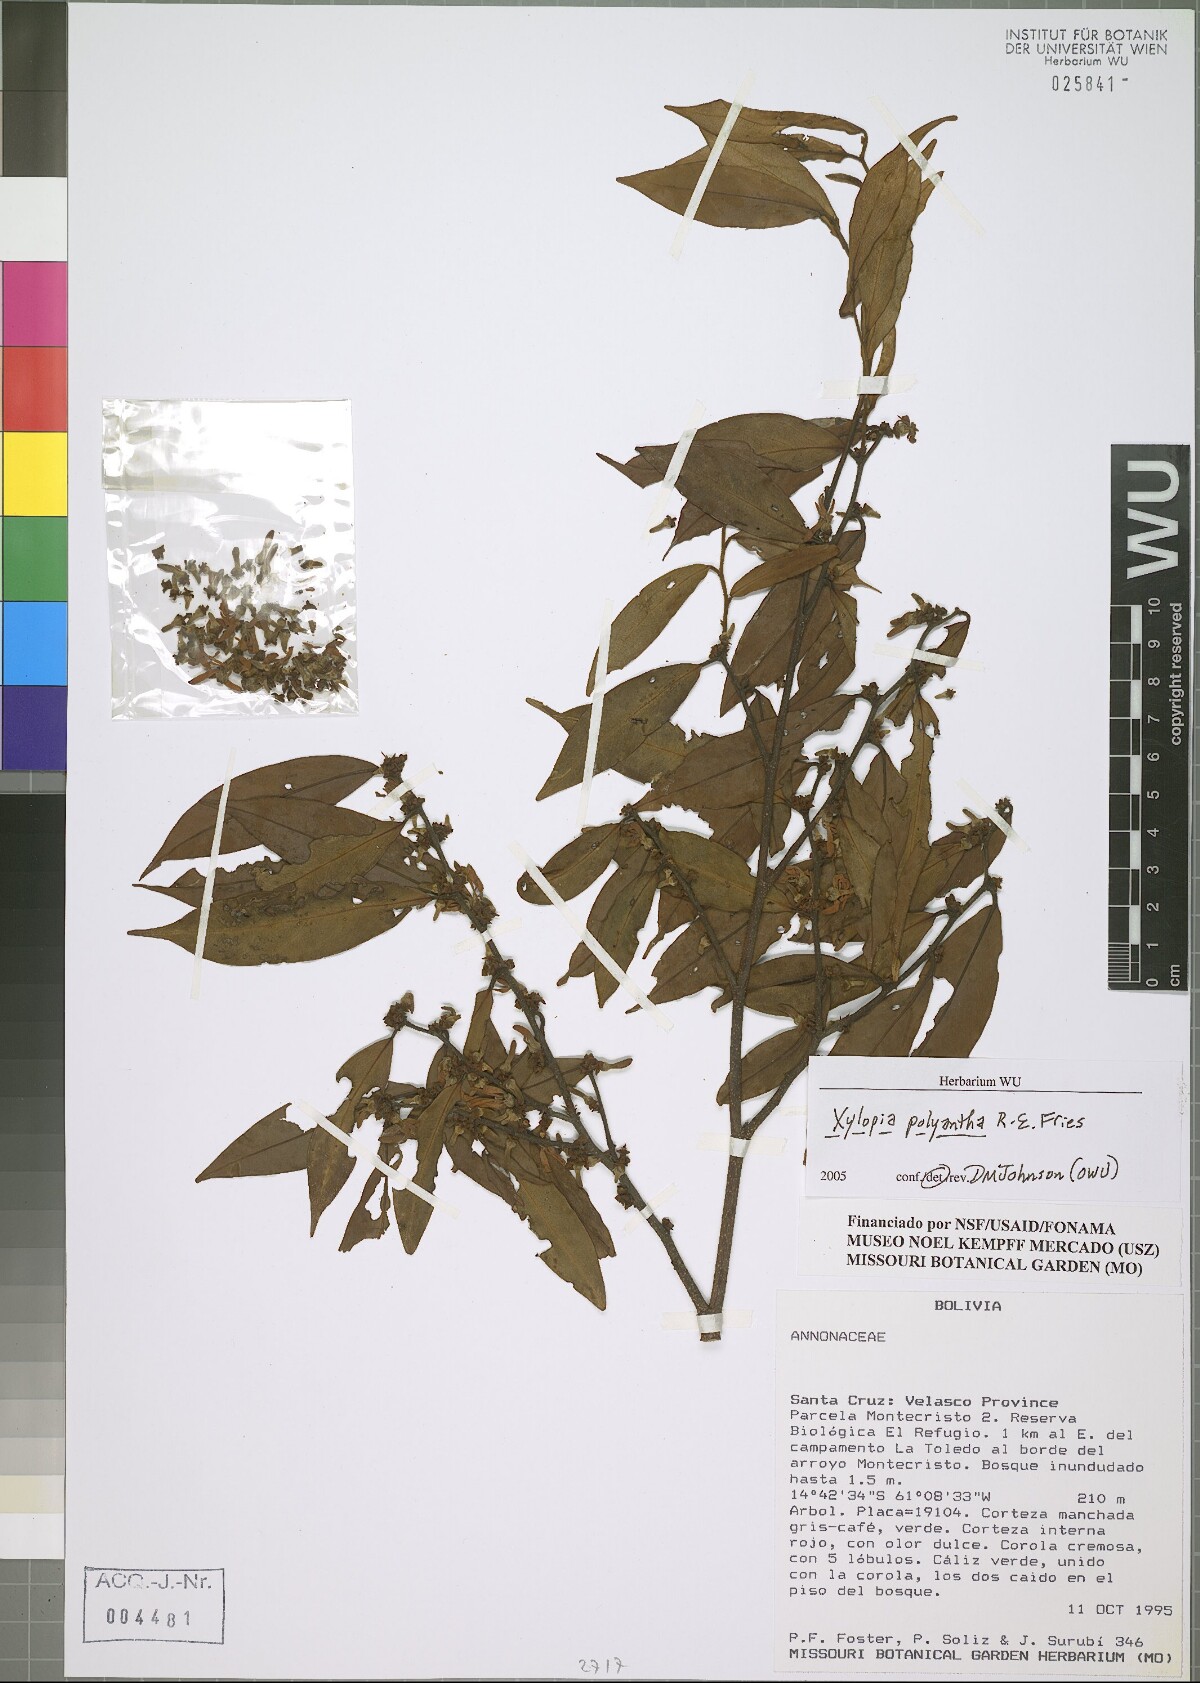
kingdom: Plantae
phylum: Tracheophyta
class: Magnoliopsida
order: Magnoliales
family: Annonaceae
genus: Xylopia
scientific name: Xylopia polyantha
